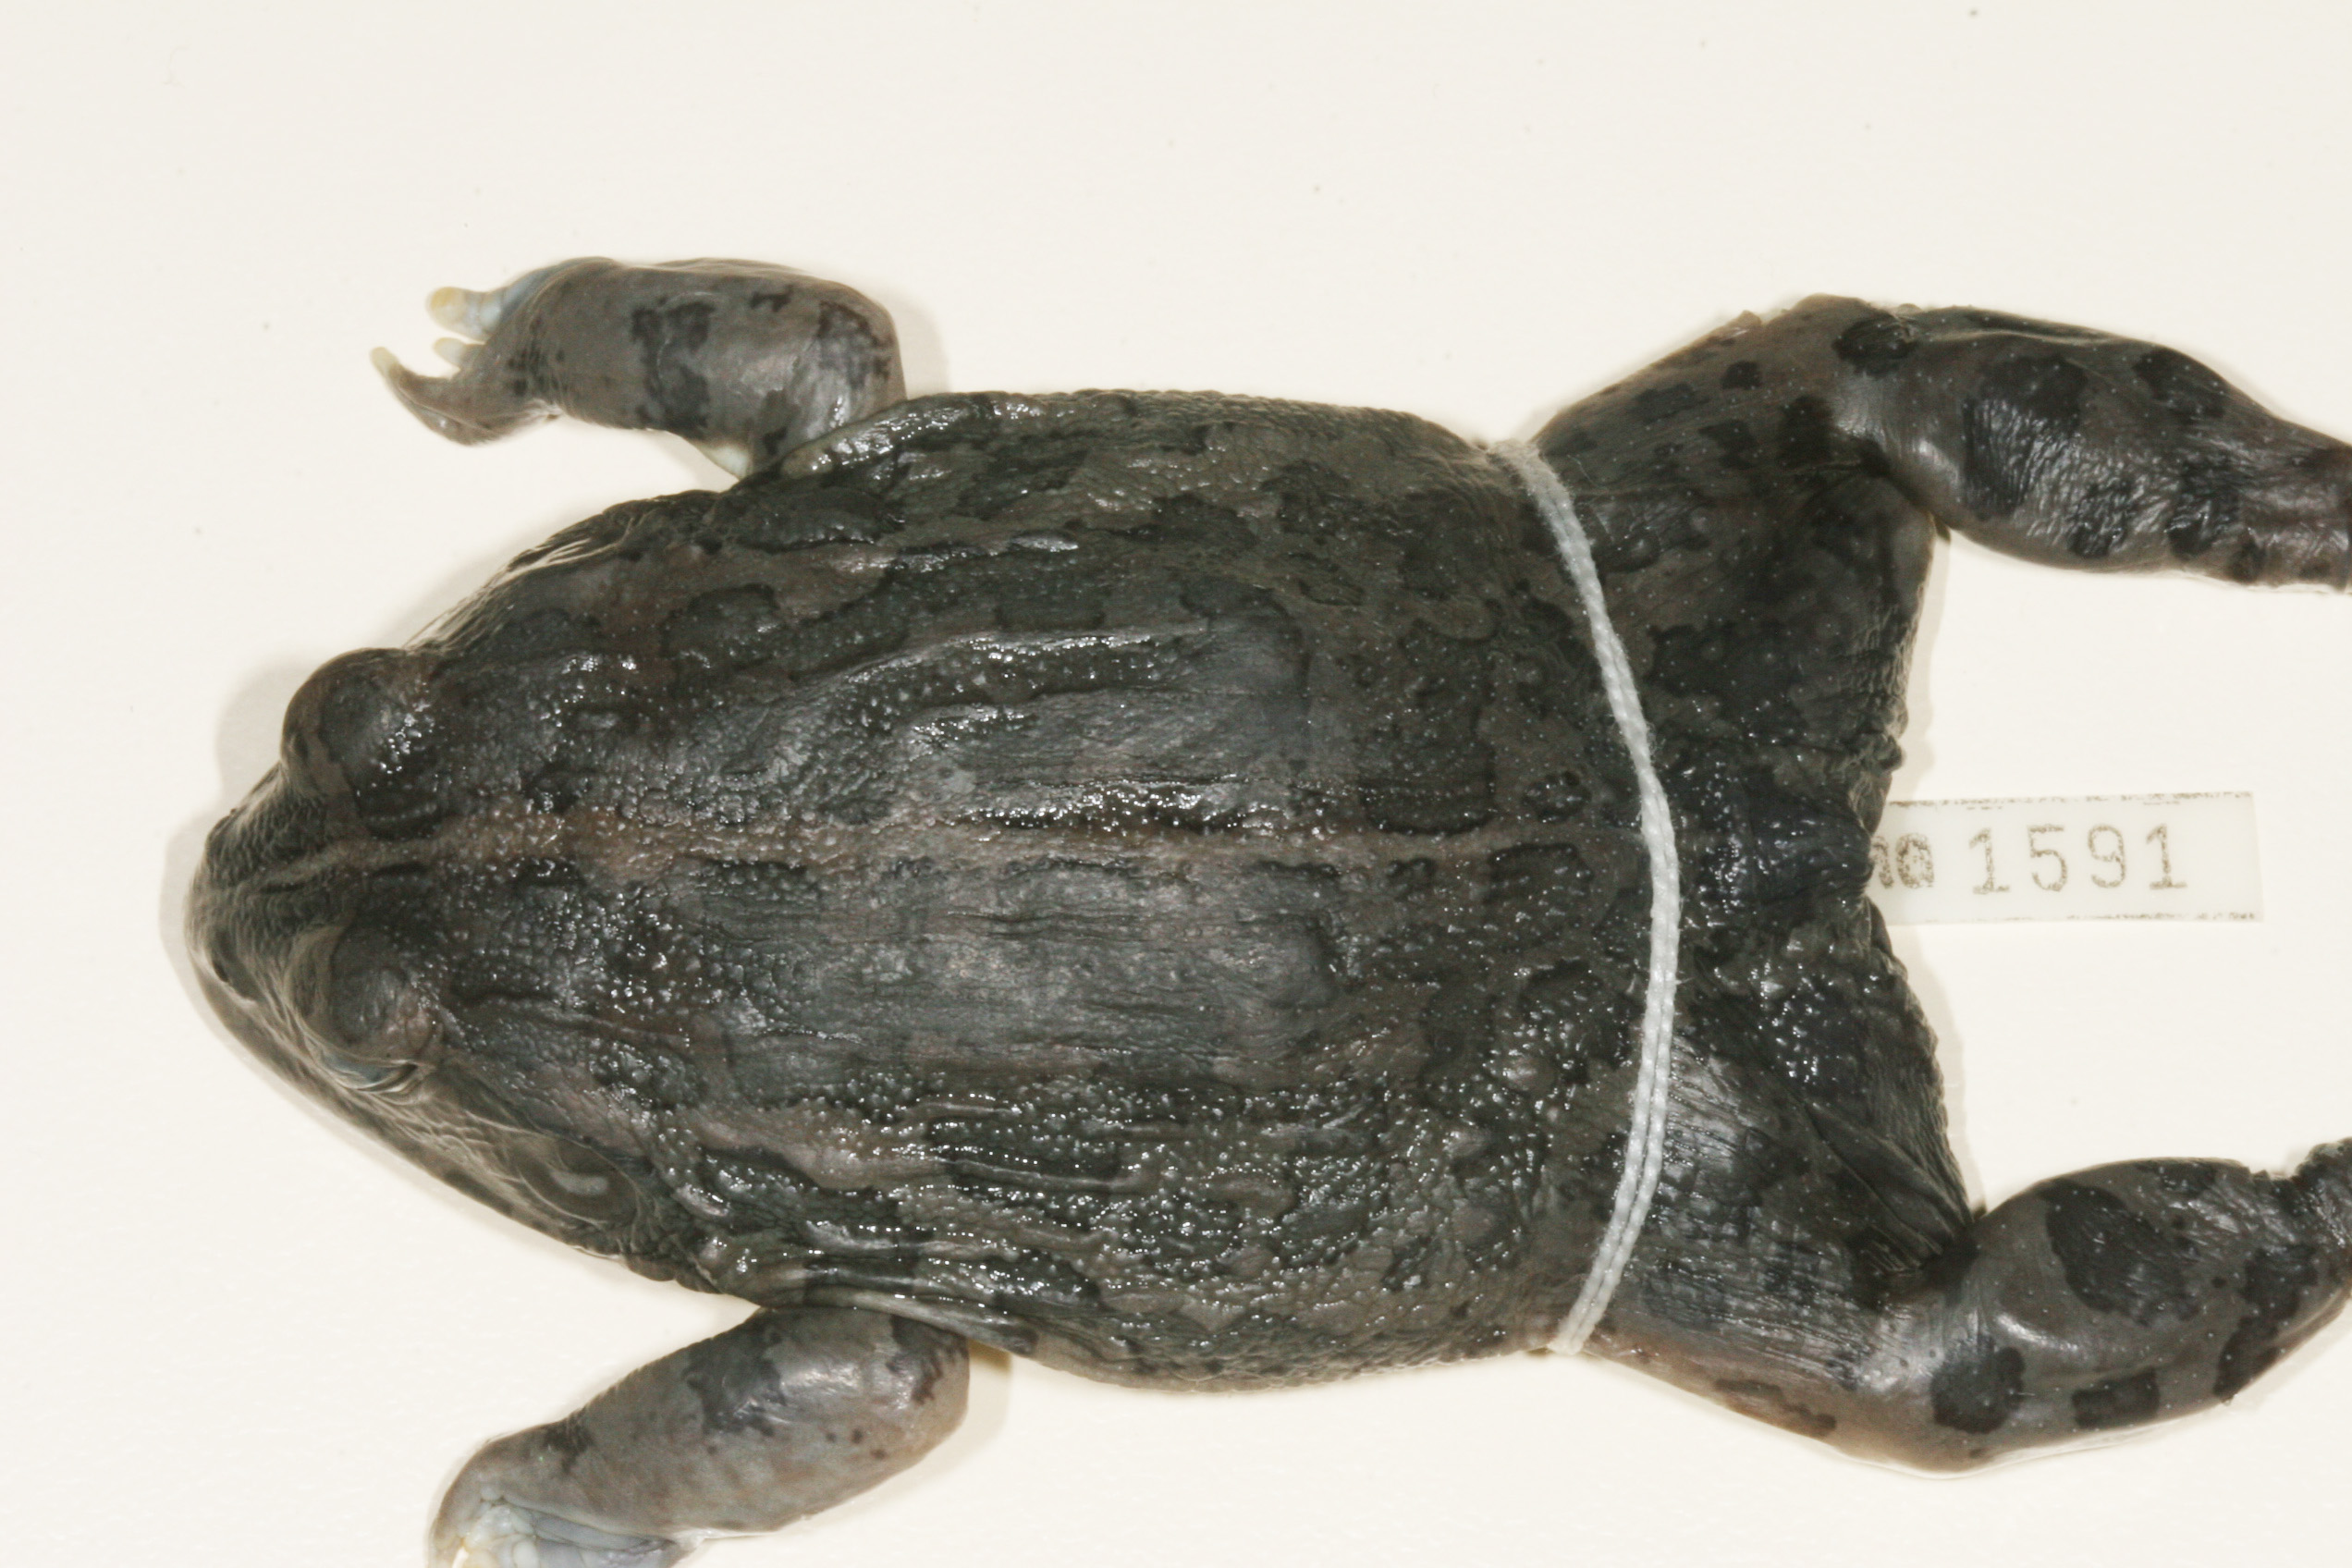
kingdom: Animalia
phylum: Chordata
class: Amphibia
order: Anura
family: Pyxicephalidae
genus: Pyxicephalus
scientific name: Pyxicephalus edulis
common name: Peter's bullfrog
